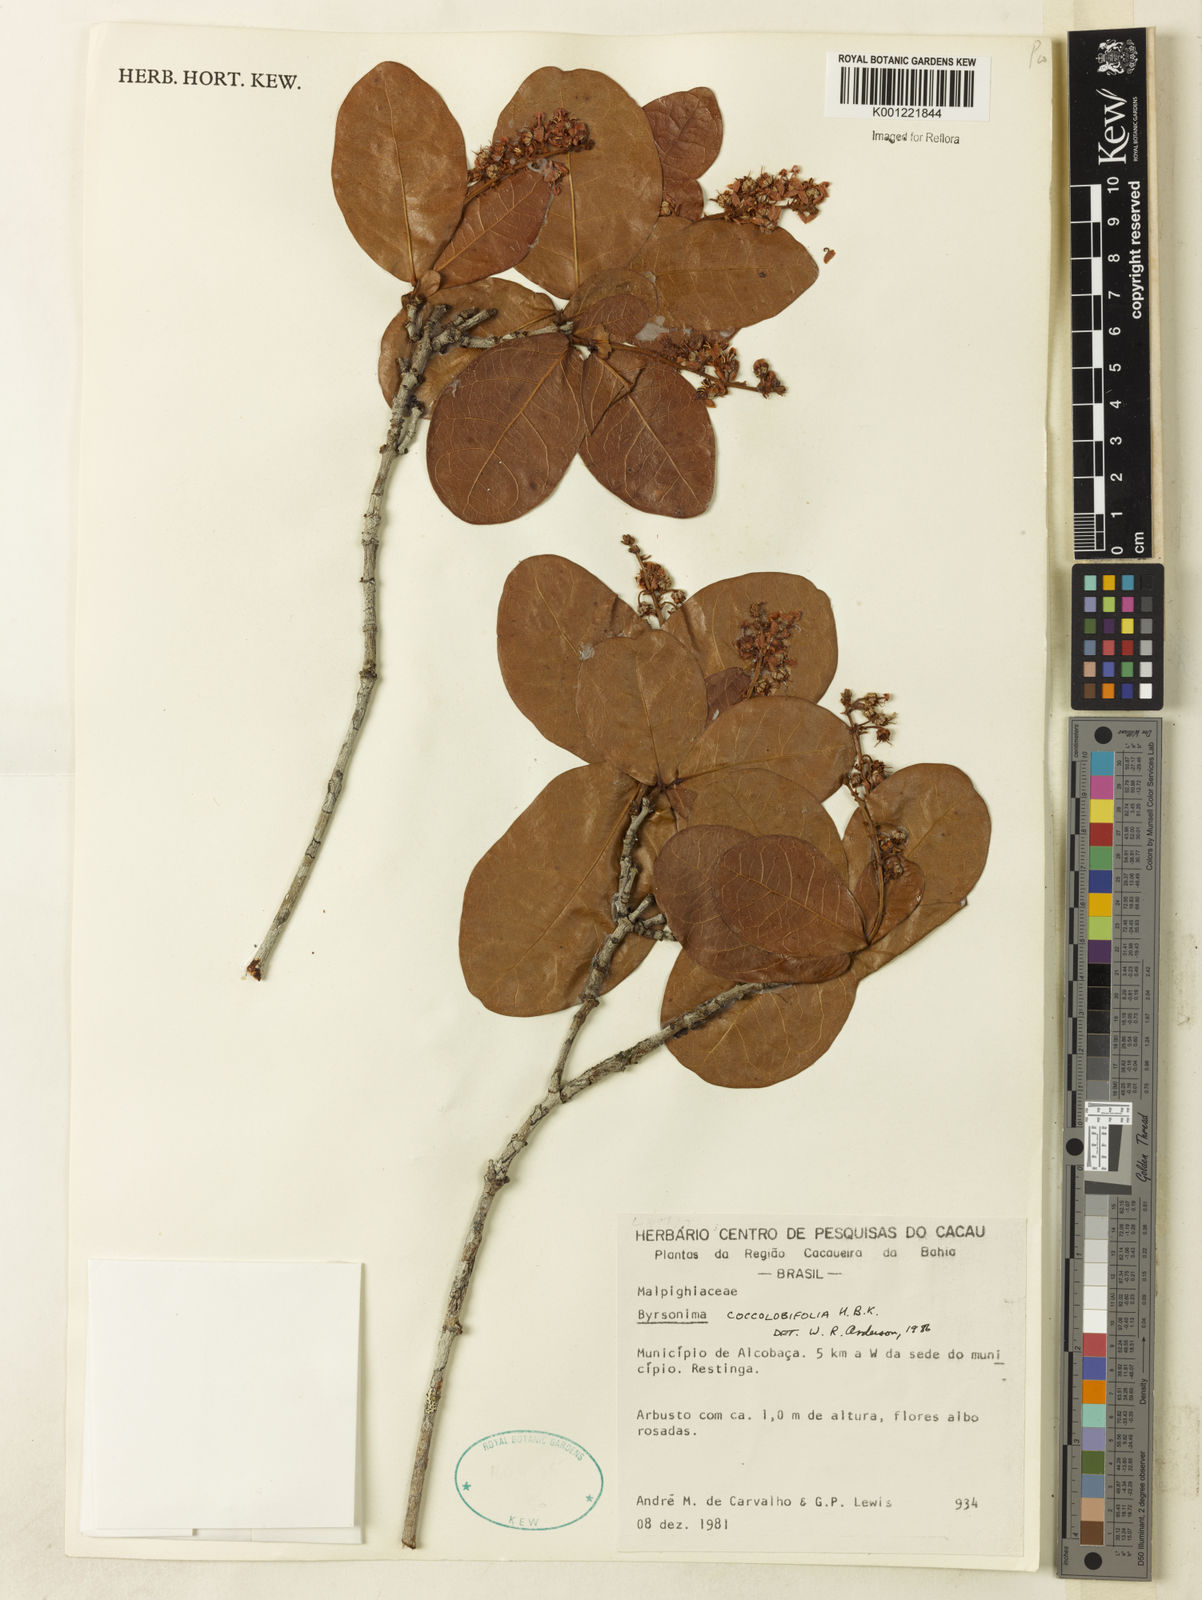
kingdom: Plantae
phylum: Tracheophyta
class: Magnoliopsida
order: Malpighiales
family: Malpighiaceae
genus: Byrsonima
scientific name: Byrsonima coccolobifolia
